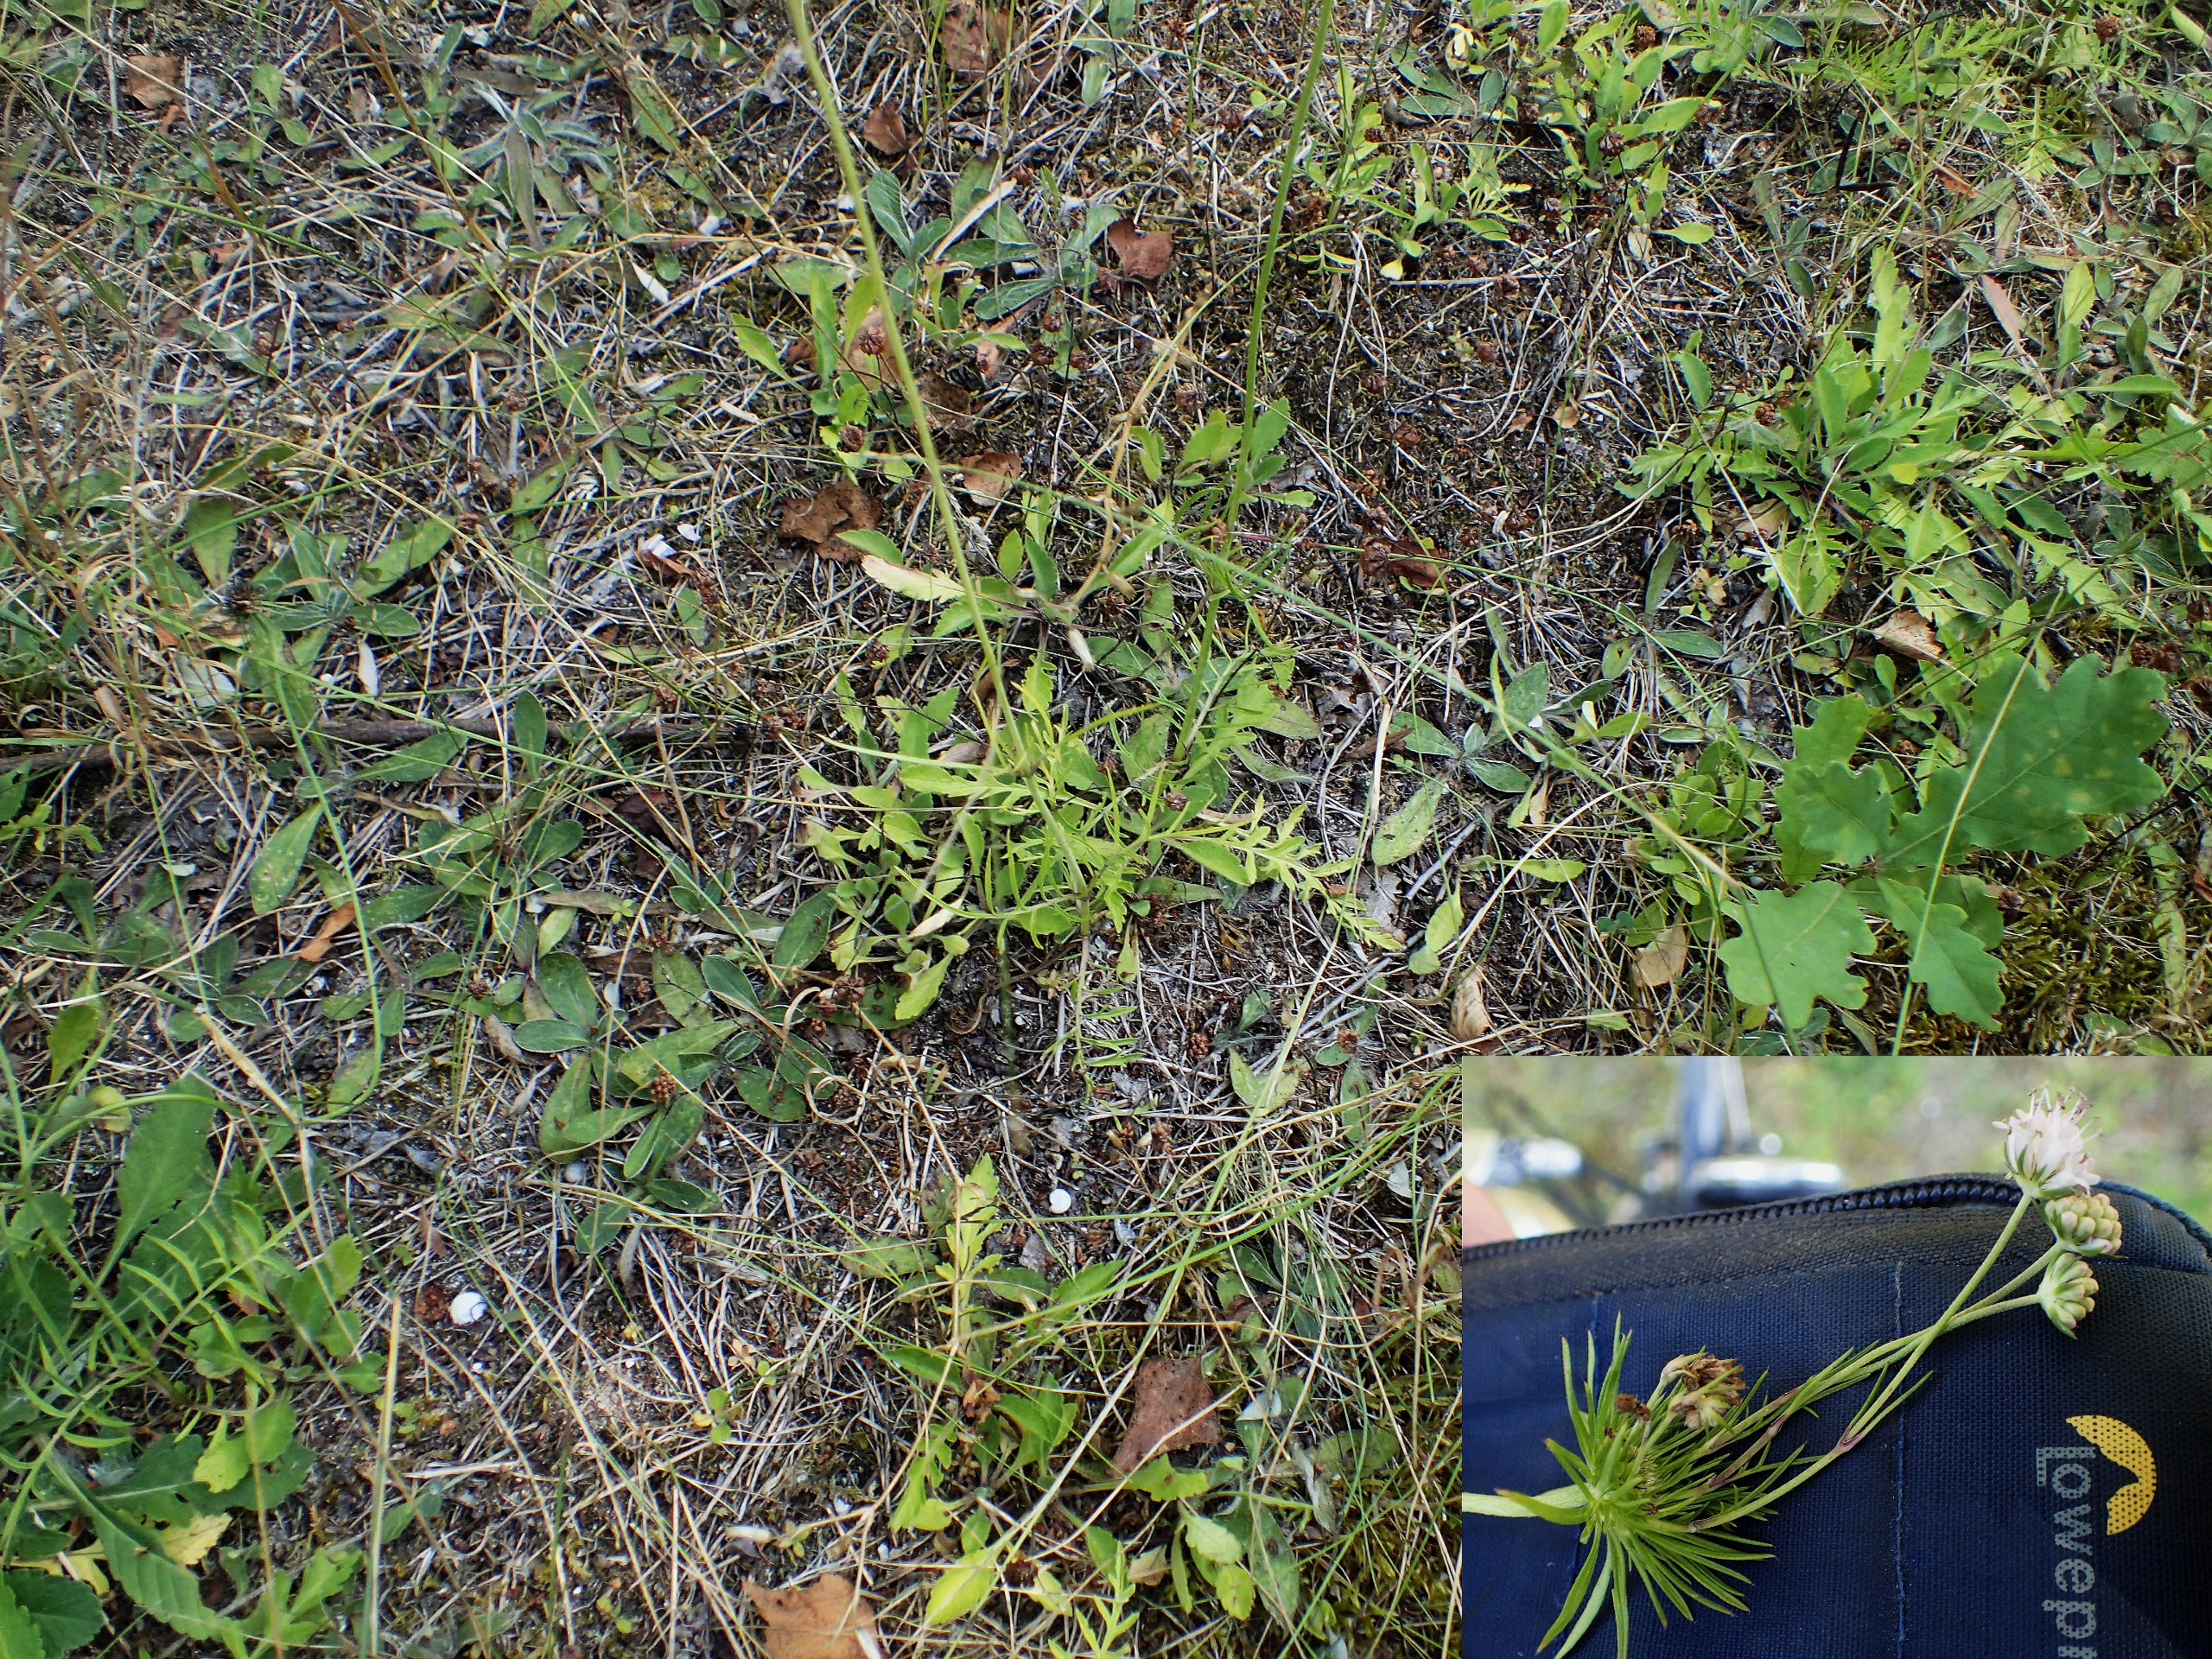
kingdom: Plantae
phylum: Tracheophyta
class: Magnoliopsida
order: Dipsacales
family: Caprifoliaceae
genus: Scabiosa
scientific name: Scabiosa columbaria
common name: Due-skabiose
